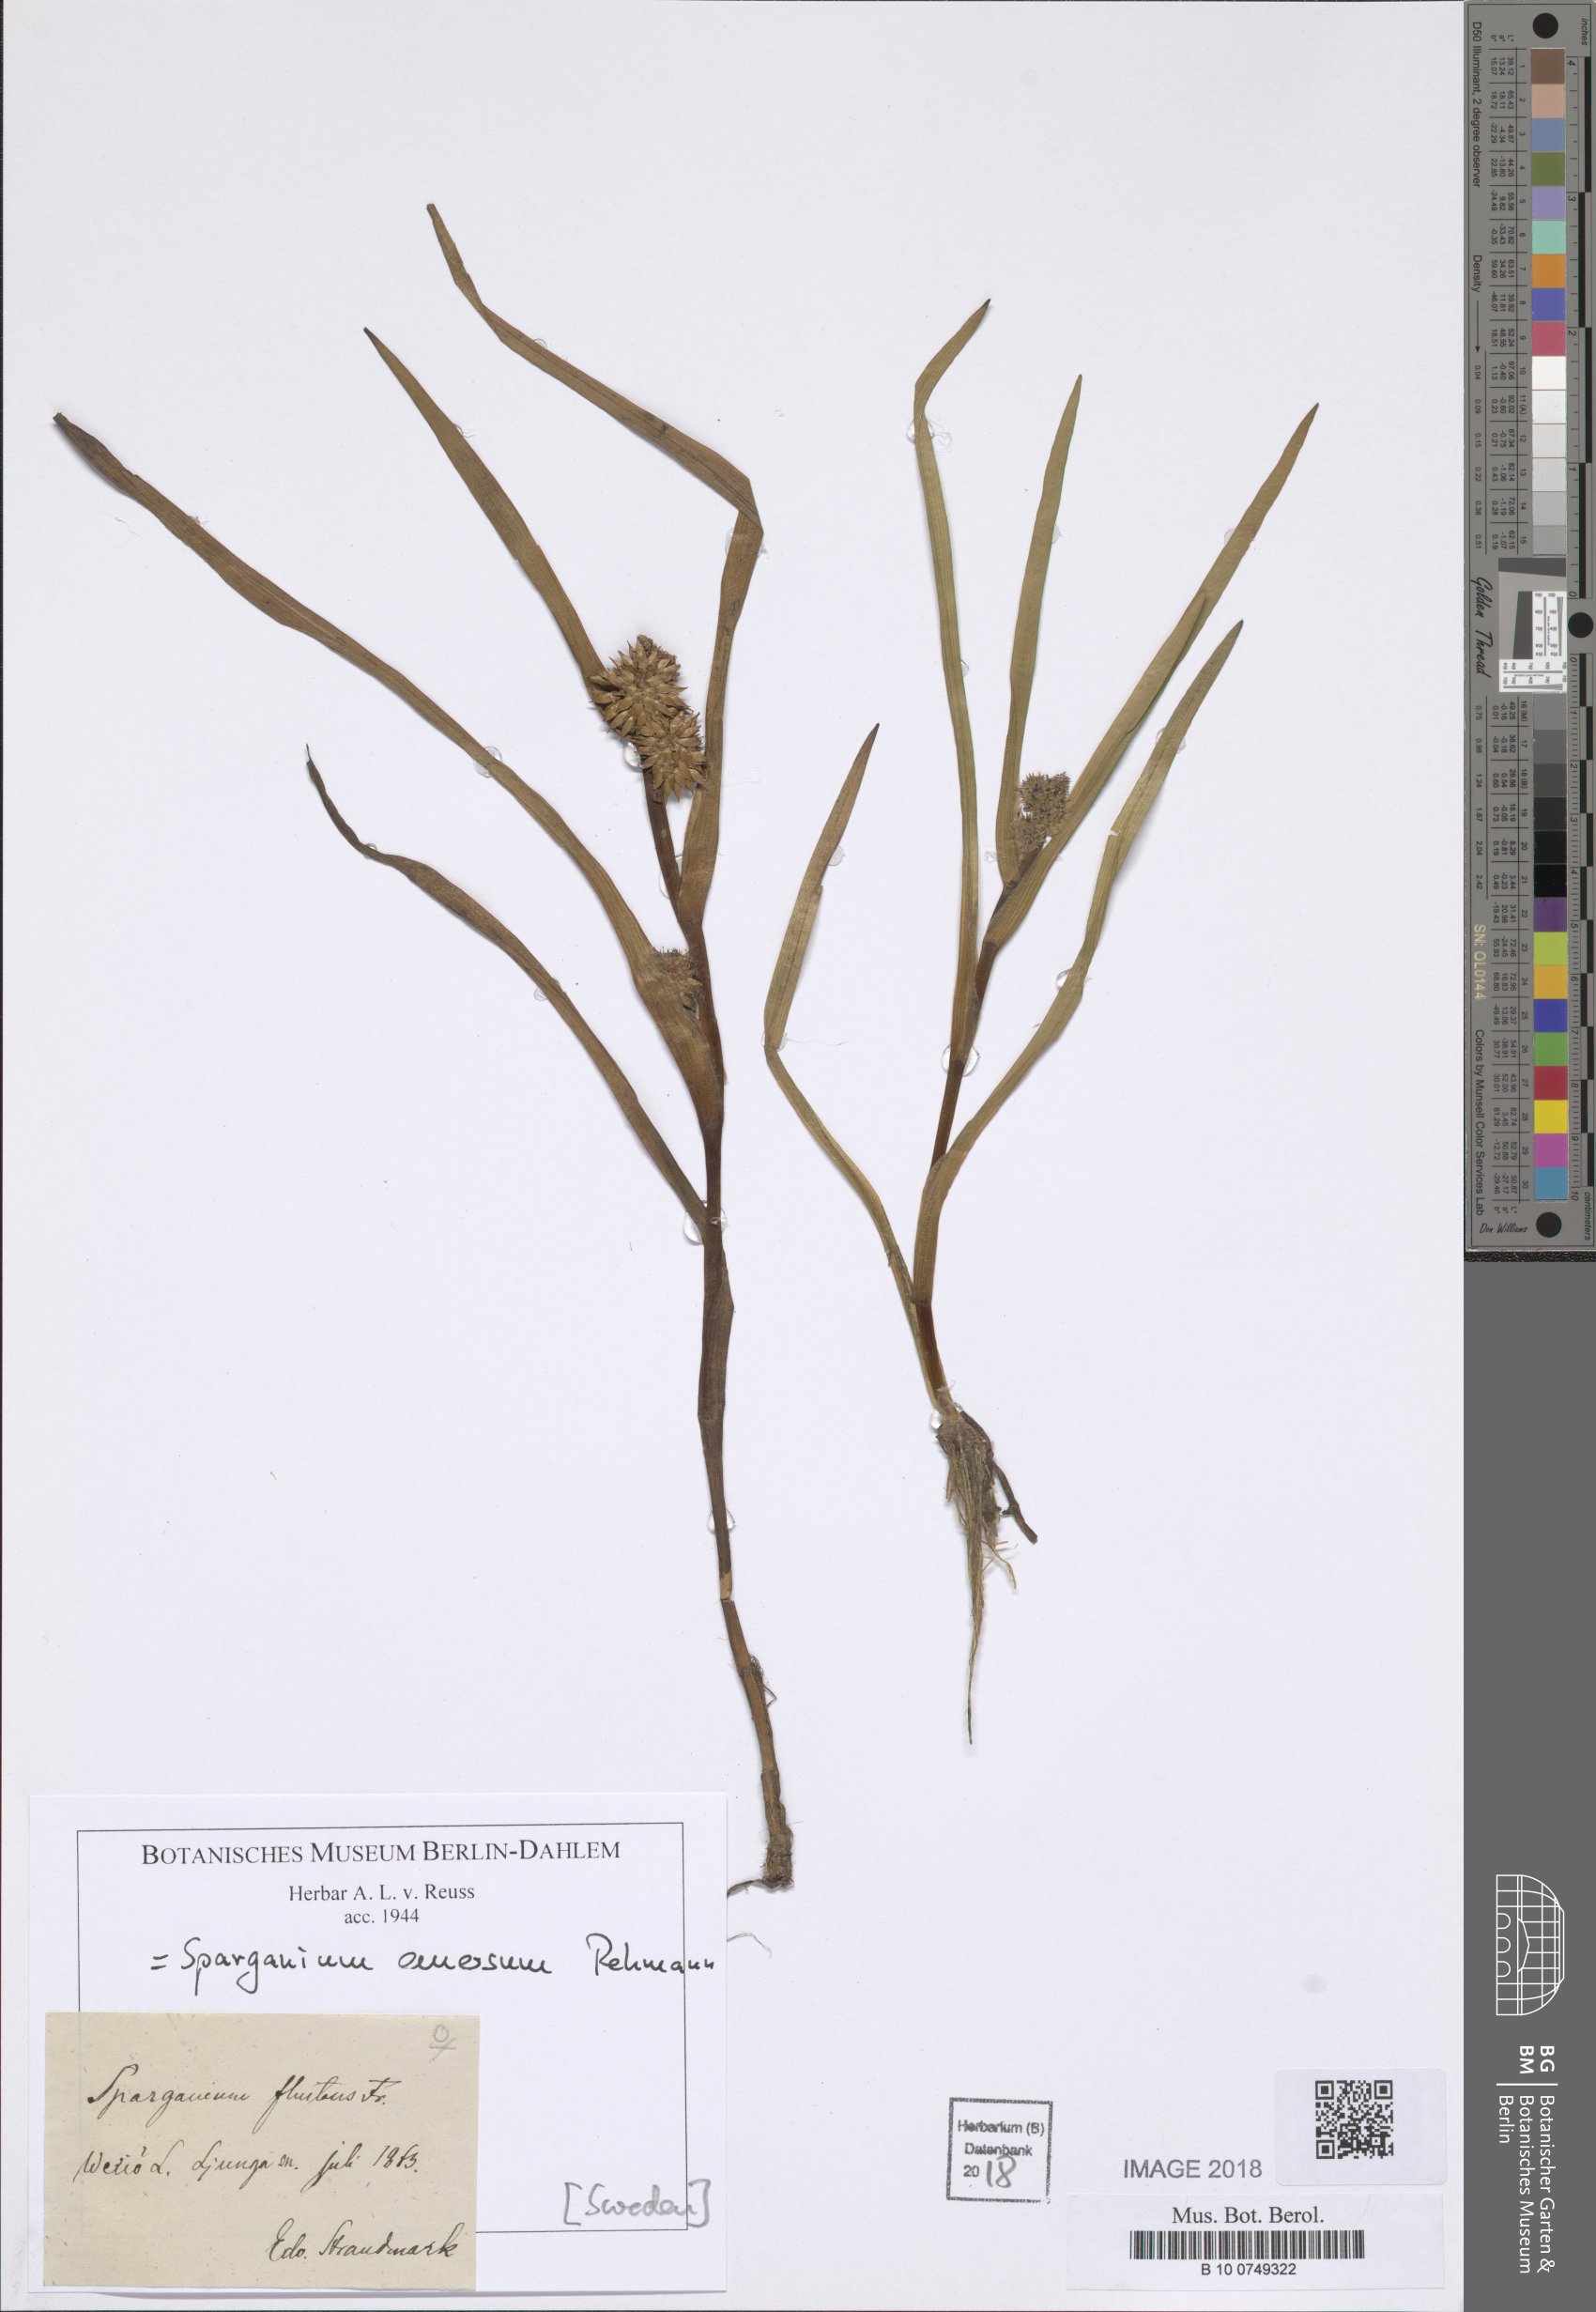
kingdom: Plantae
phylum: Tracheophyta
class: Liliopsida
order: Poales
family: Typhaceae
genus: Sparganium
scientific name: Sparganium emersum
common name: Unbranched bur-reed
